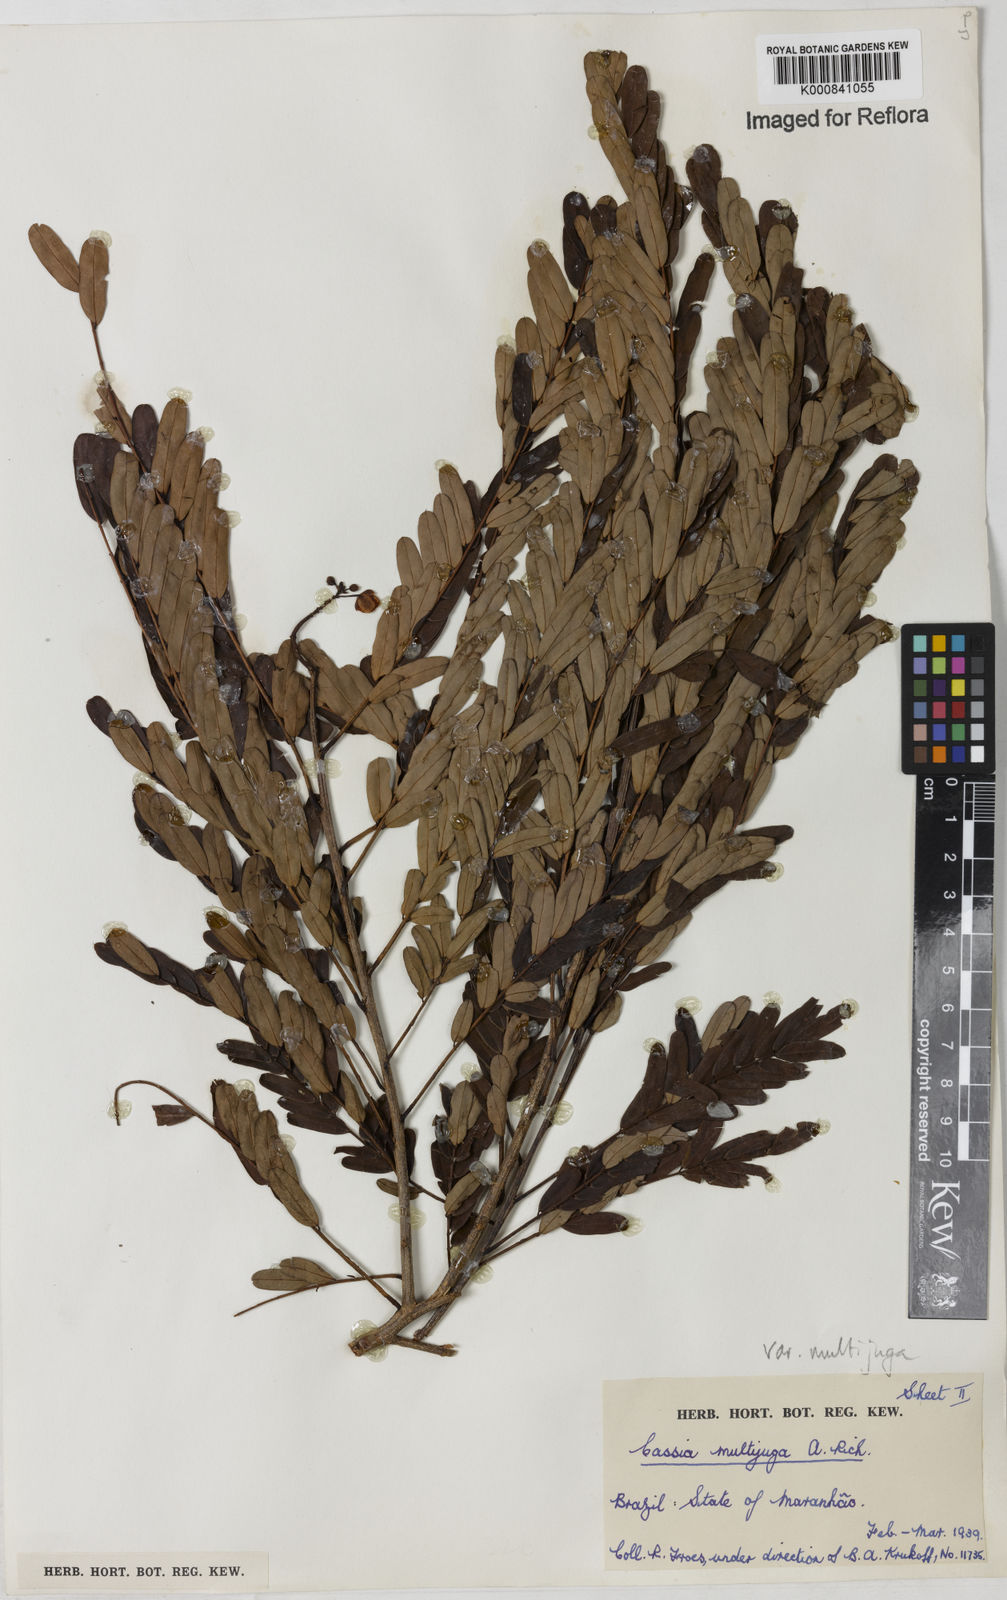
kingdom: Plantae
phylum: Tracheophyta
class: Magnoliopsida
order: Fabales
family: Fabaceae
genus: Senna
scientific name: Senna multijuga
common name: False sicklepod
